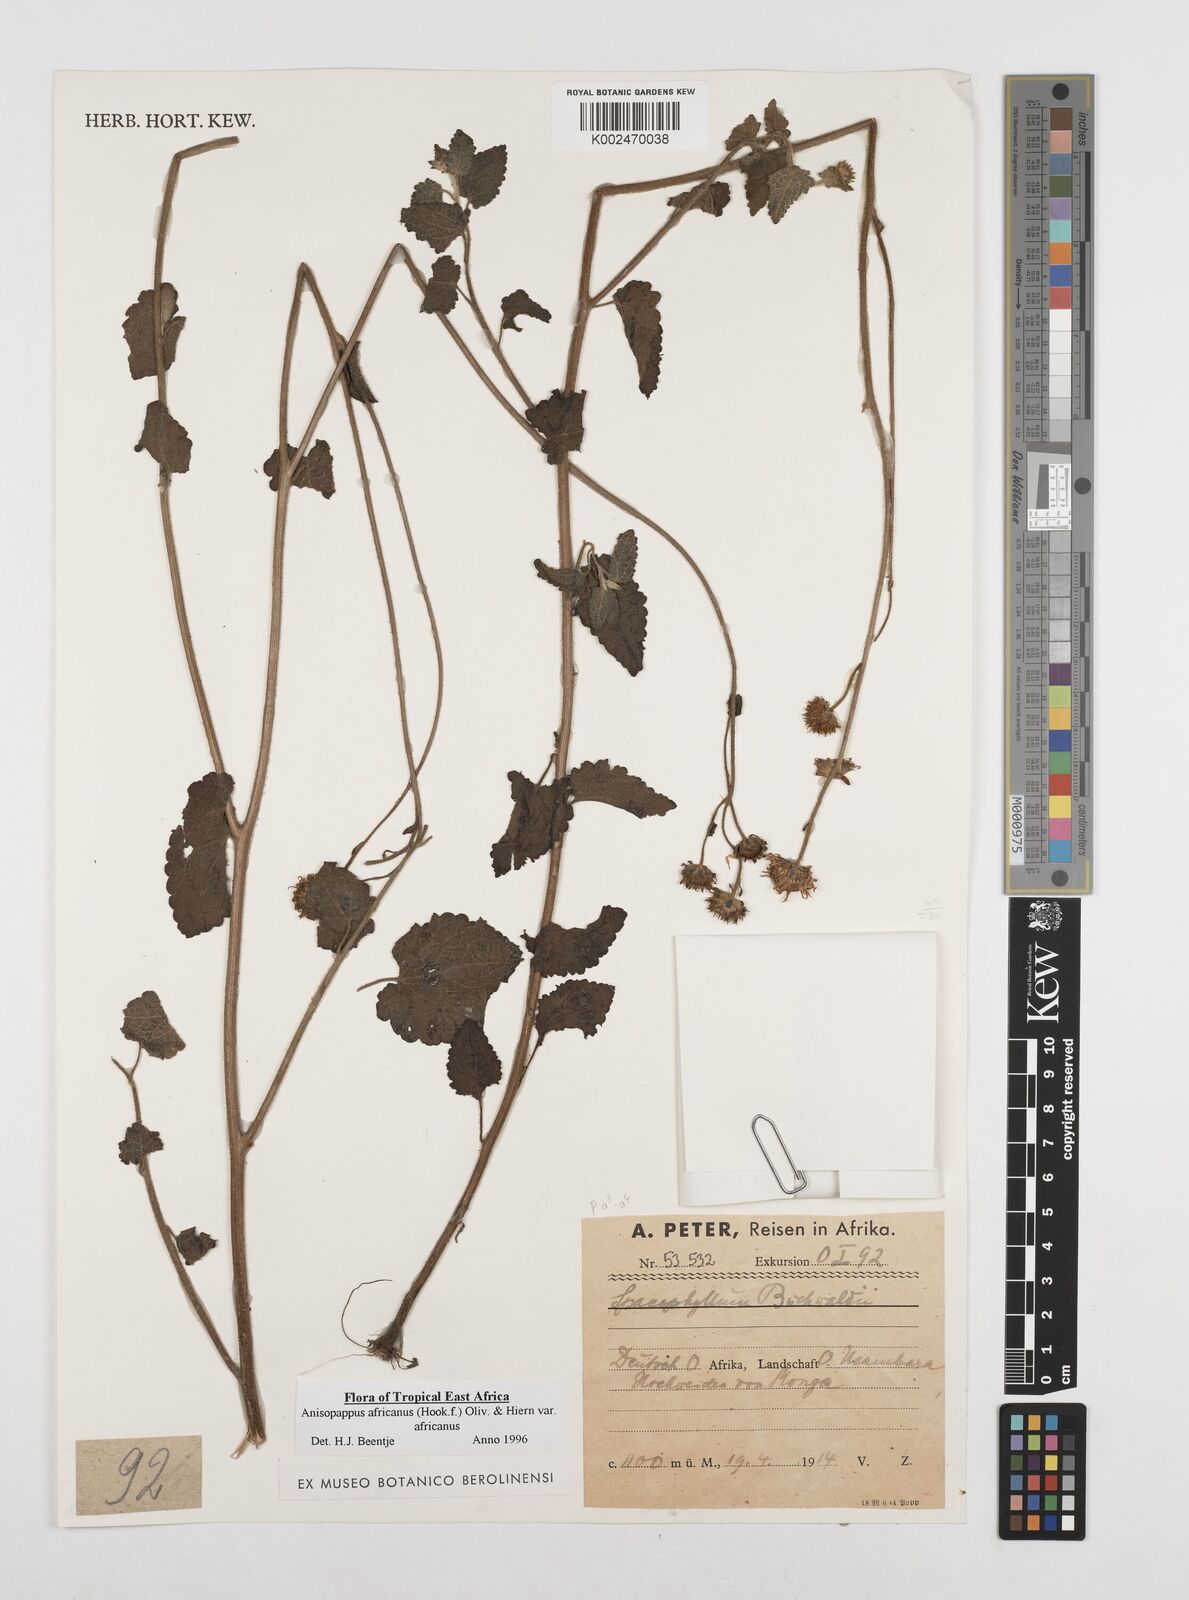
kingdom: Plantae
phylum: Tracheophyta
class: Magnoliopsida
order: Asterales
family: Asteraceae
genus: Anisopappus
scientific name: Anisopappus buchwaldii
